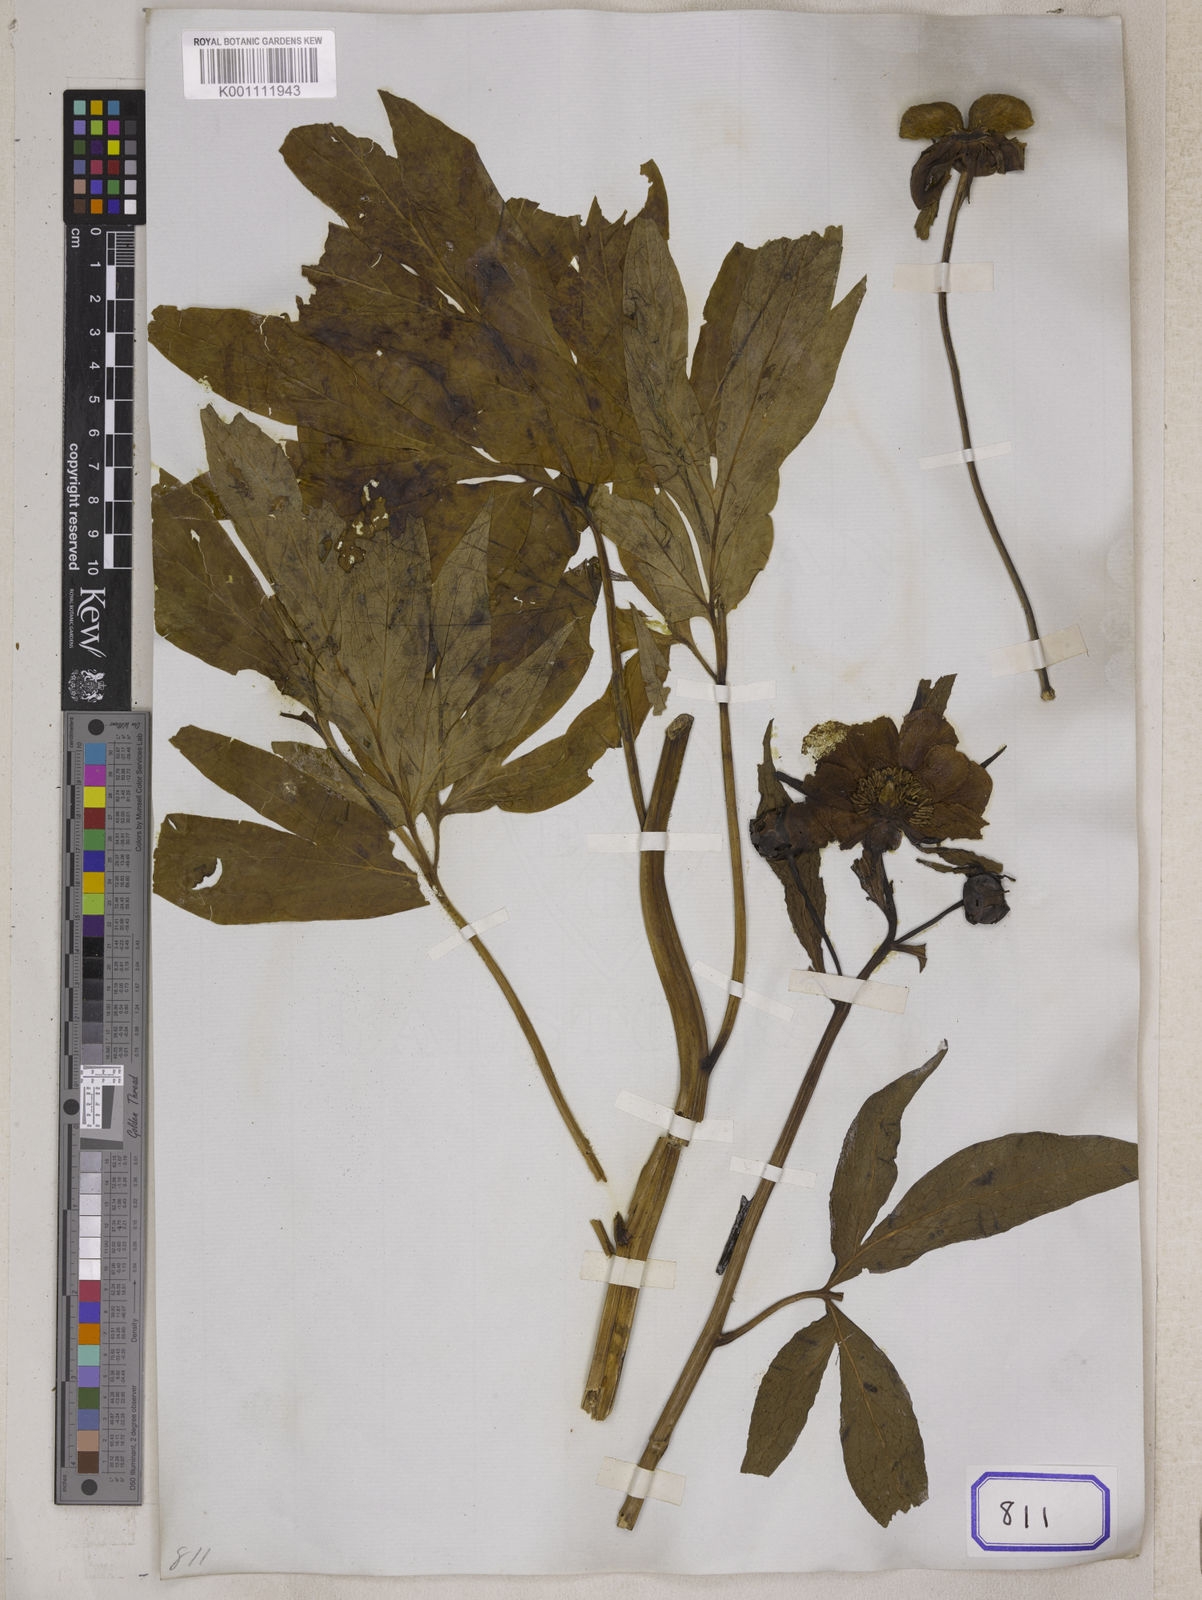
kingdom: Plantae
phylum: Tracheophyta
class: Magnoliopsida
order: Saxifragales
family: Paeoniaceae
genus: Paeonia
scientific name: Paeonia
